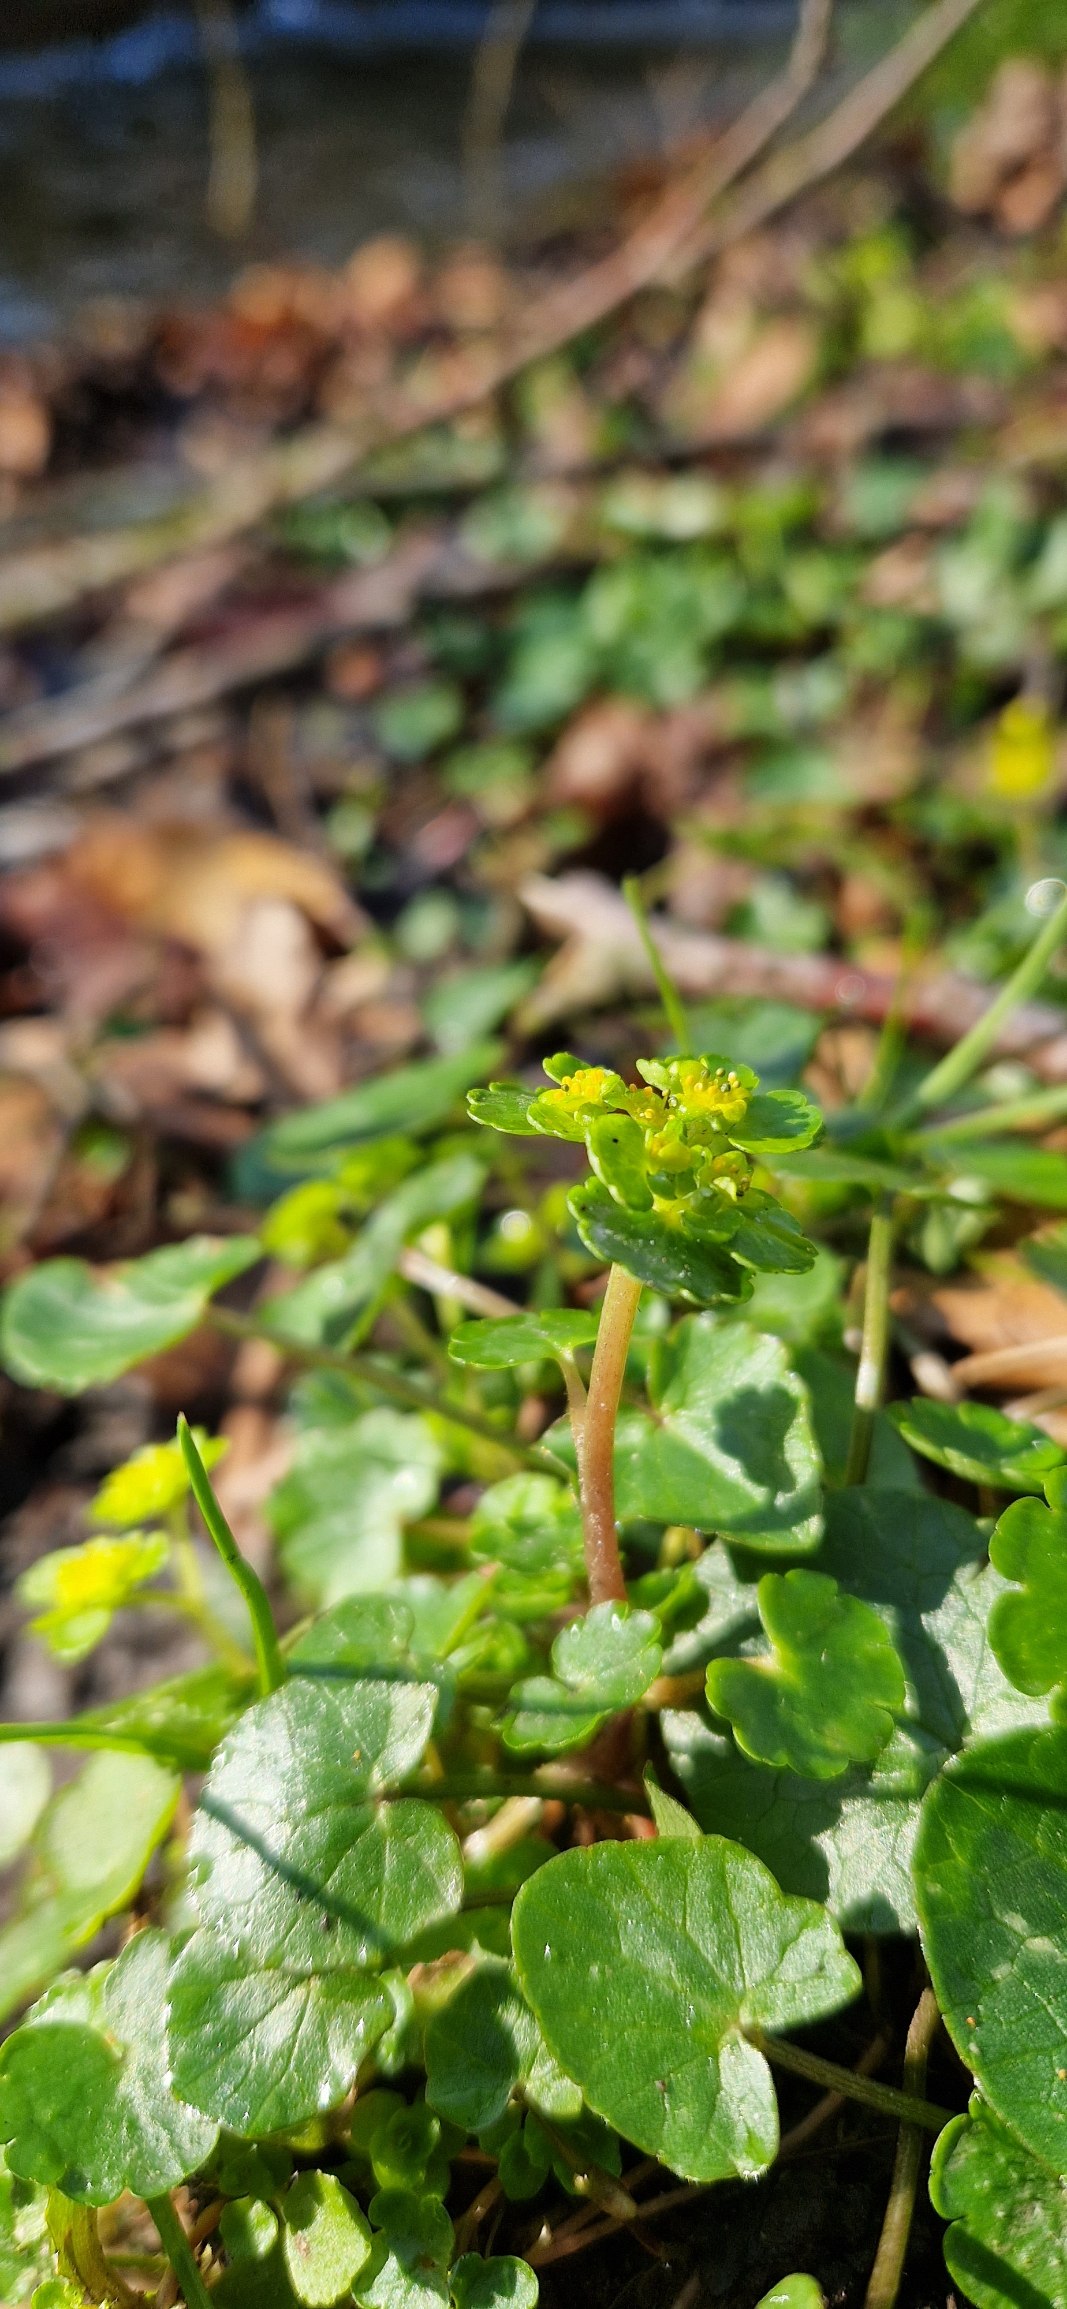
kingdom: Plantae
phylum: Tracheophyta
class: Magnoliopsida
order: Saxifragales
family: Saxifragaceae
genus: Chrysosplenium
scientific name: Chrysosplenium alternifolium
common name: Almindelig milturt
